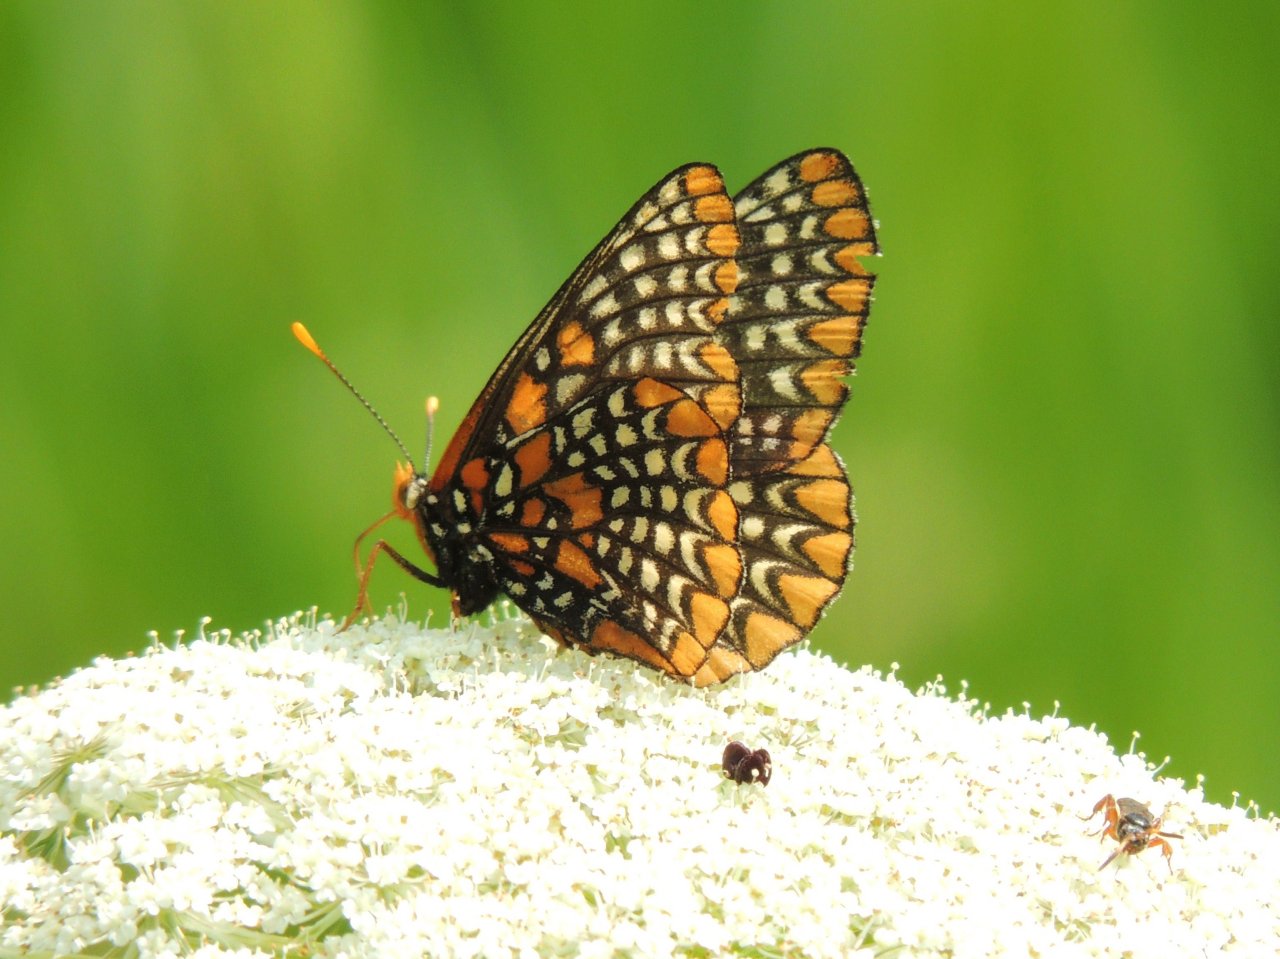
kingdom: Animalia
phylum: Arthropoda
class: Insecta
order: Lepidoptera
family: Nymphalidae
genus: Euphydryas
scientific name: Euphydryas phaeton
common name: Baltimore Checkerspot
